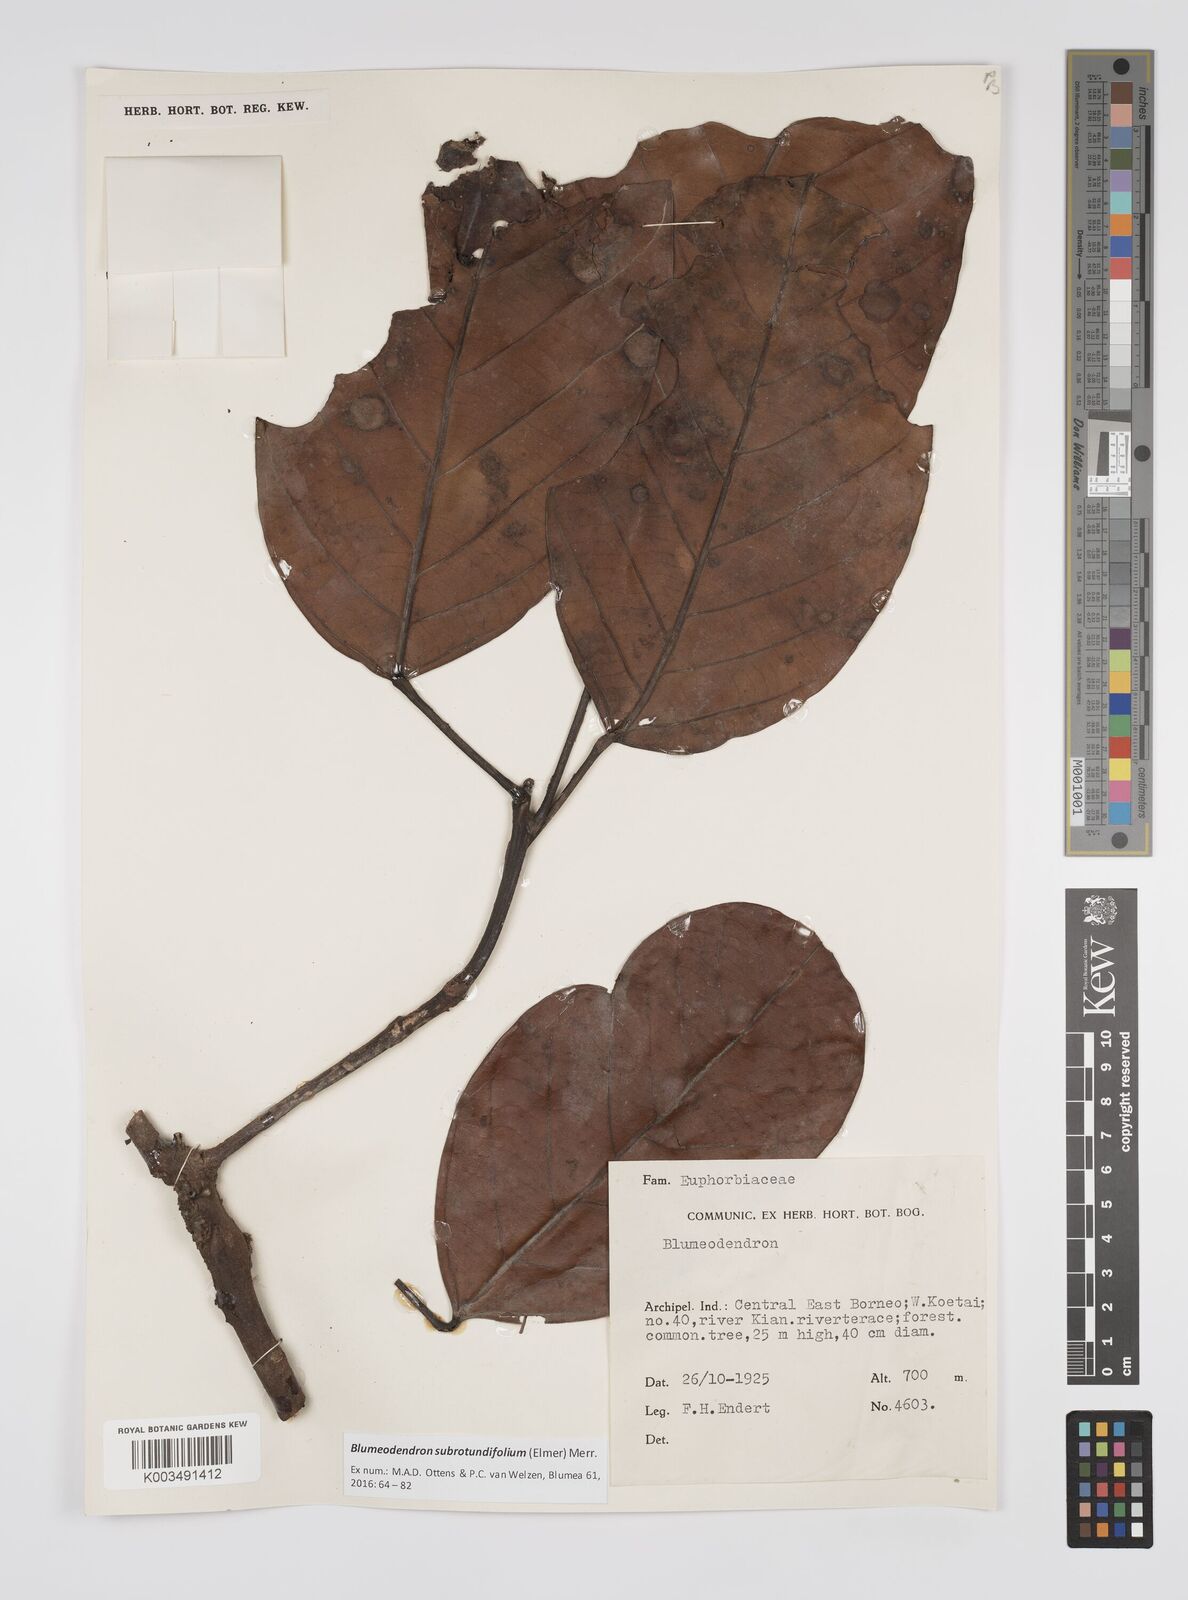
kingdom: Plantae
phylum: Tracheophyta
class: Magnoliopsida
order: Malpighiales
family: Euphorbiaceae
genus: Blumeodendron
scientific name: Blumeodendron subrotundifolium
